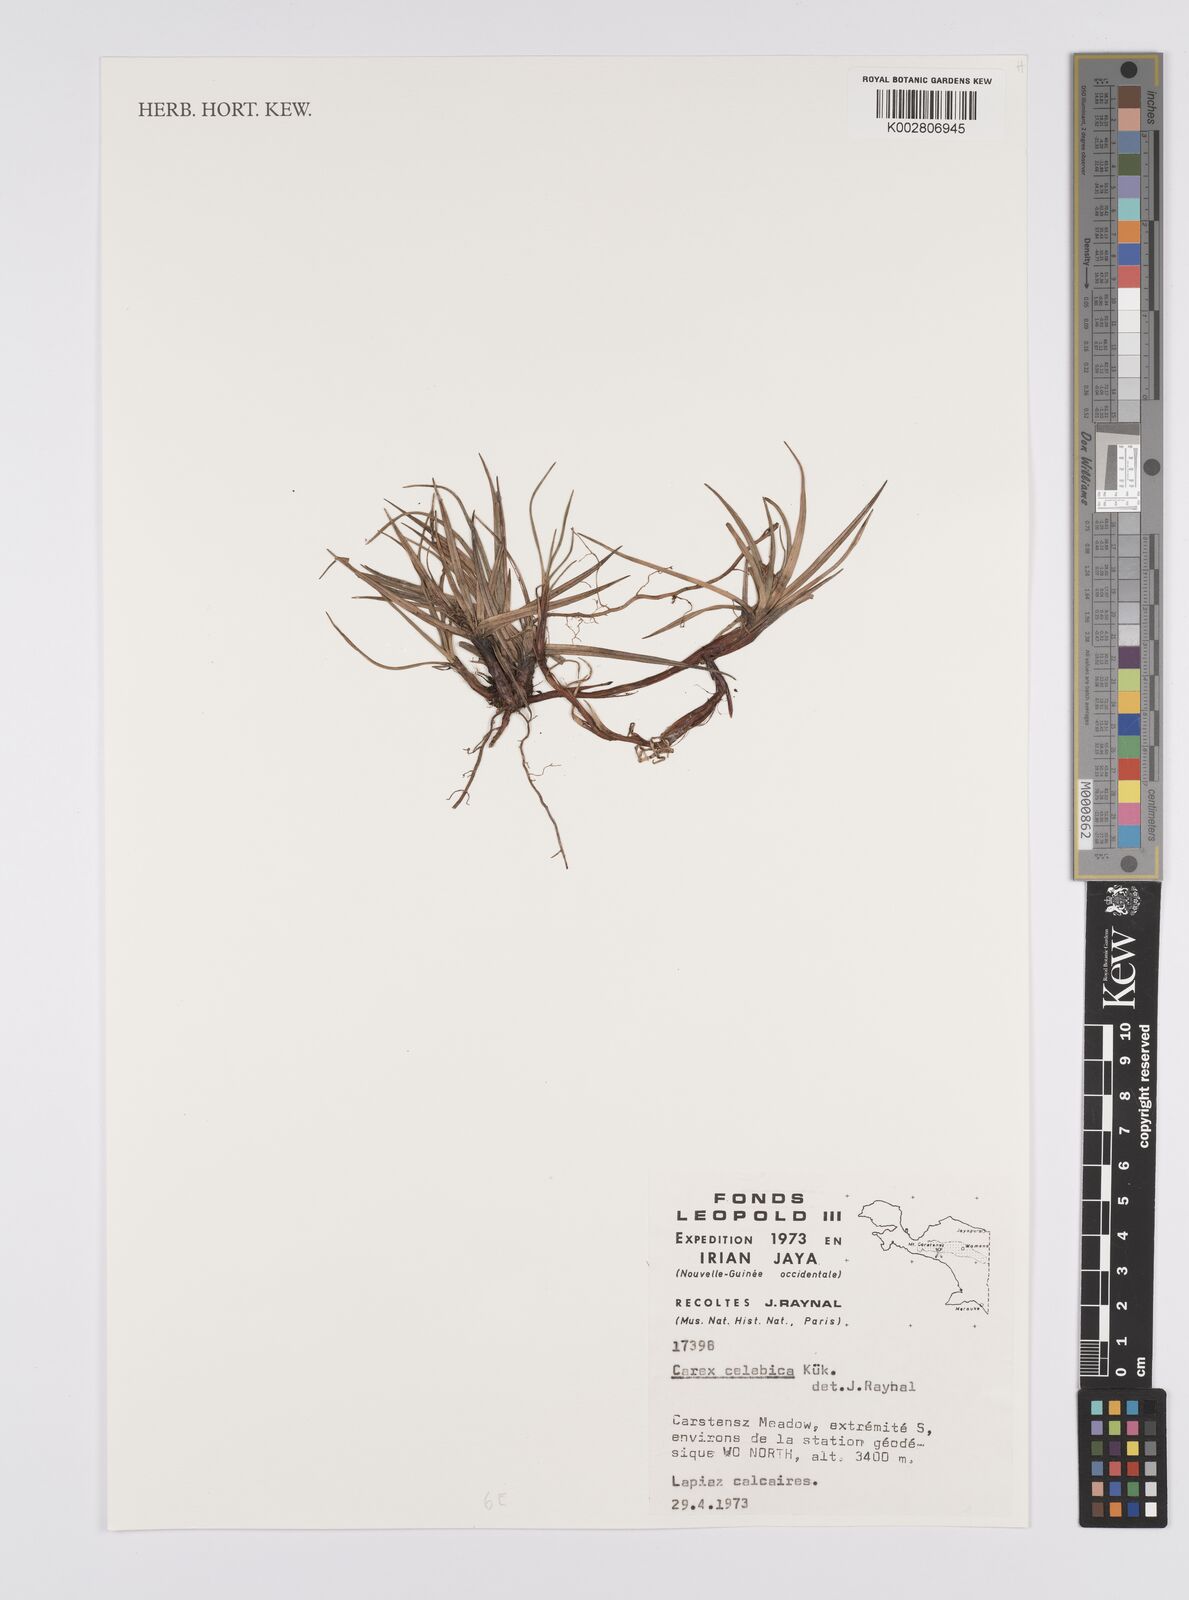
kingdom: Plantae
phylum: Tracheophyta
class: Liliopsida
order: Poales
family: Cyperaceae
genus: Carex
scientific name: Carex celebica
